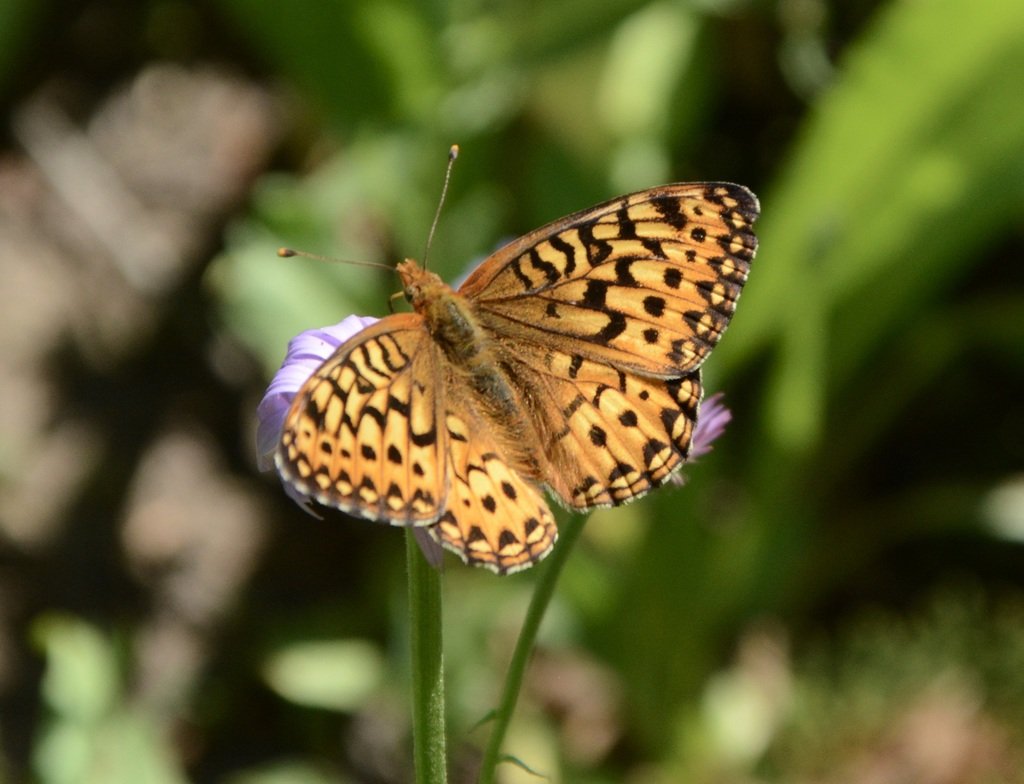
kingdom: Animalia
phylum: Arthropoda
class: Insecta
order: Lepidoptera
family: Nymphalidae
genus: Speyeria
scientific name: Speyeria mormonia
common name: Mormon Fritillary
